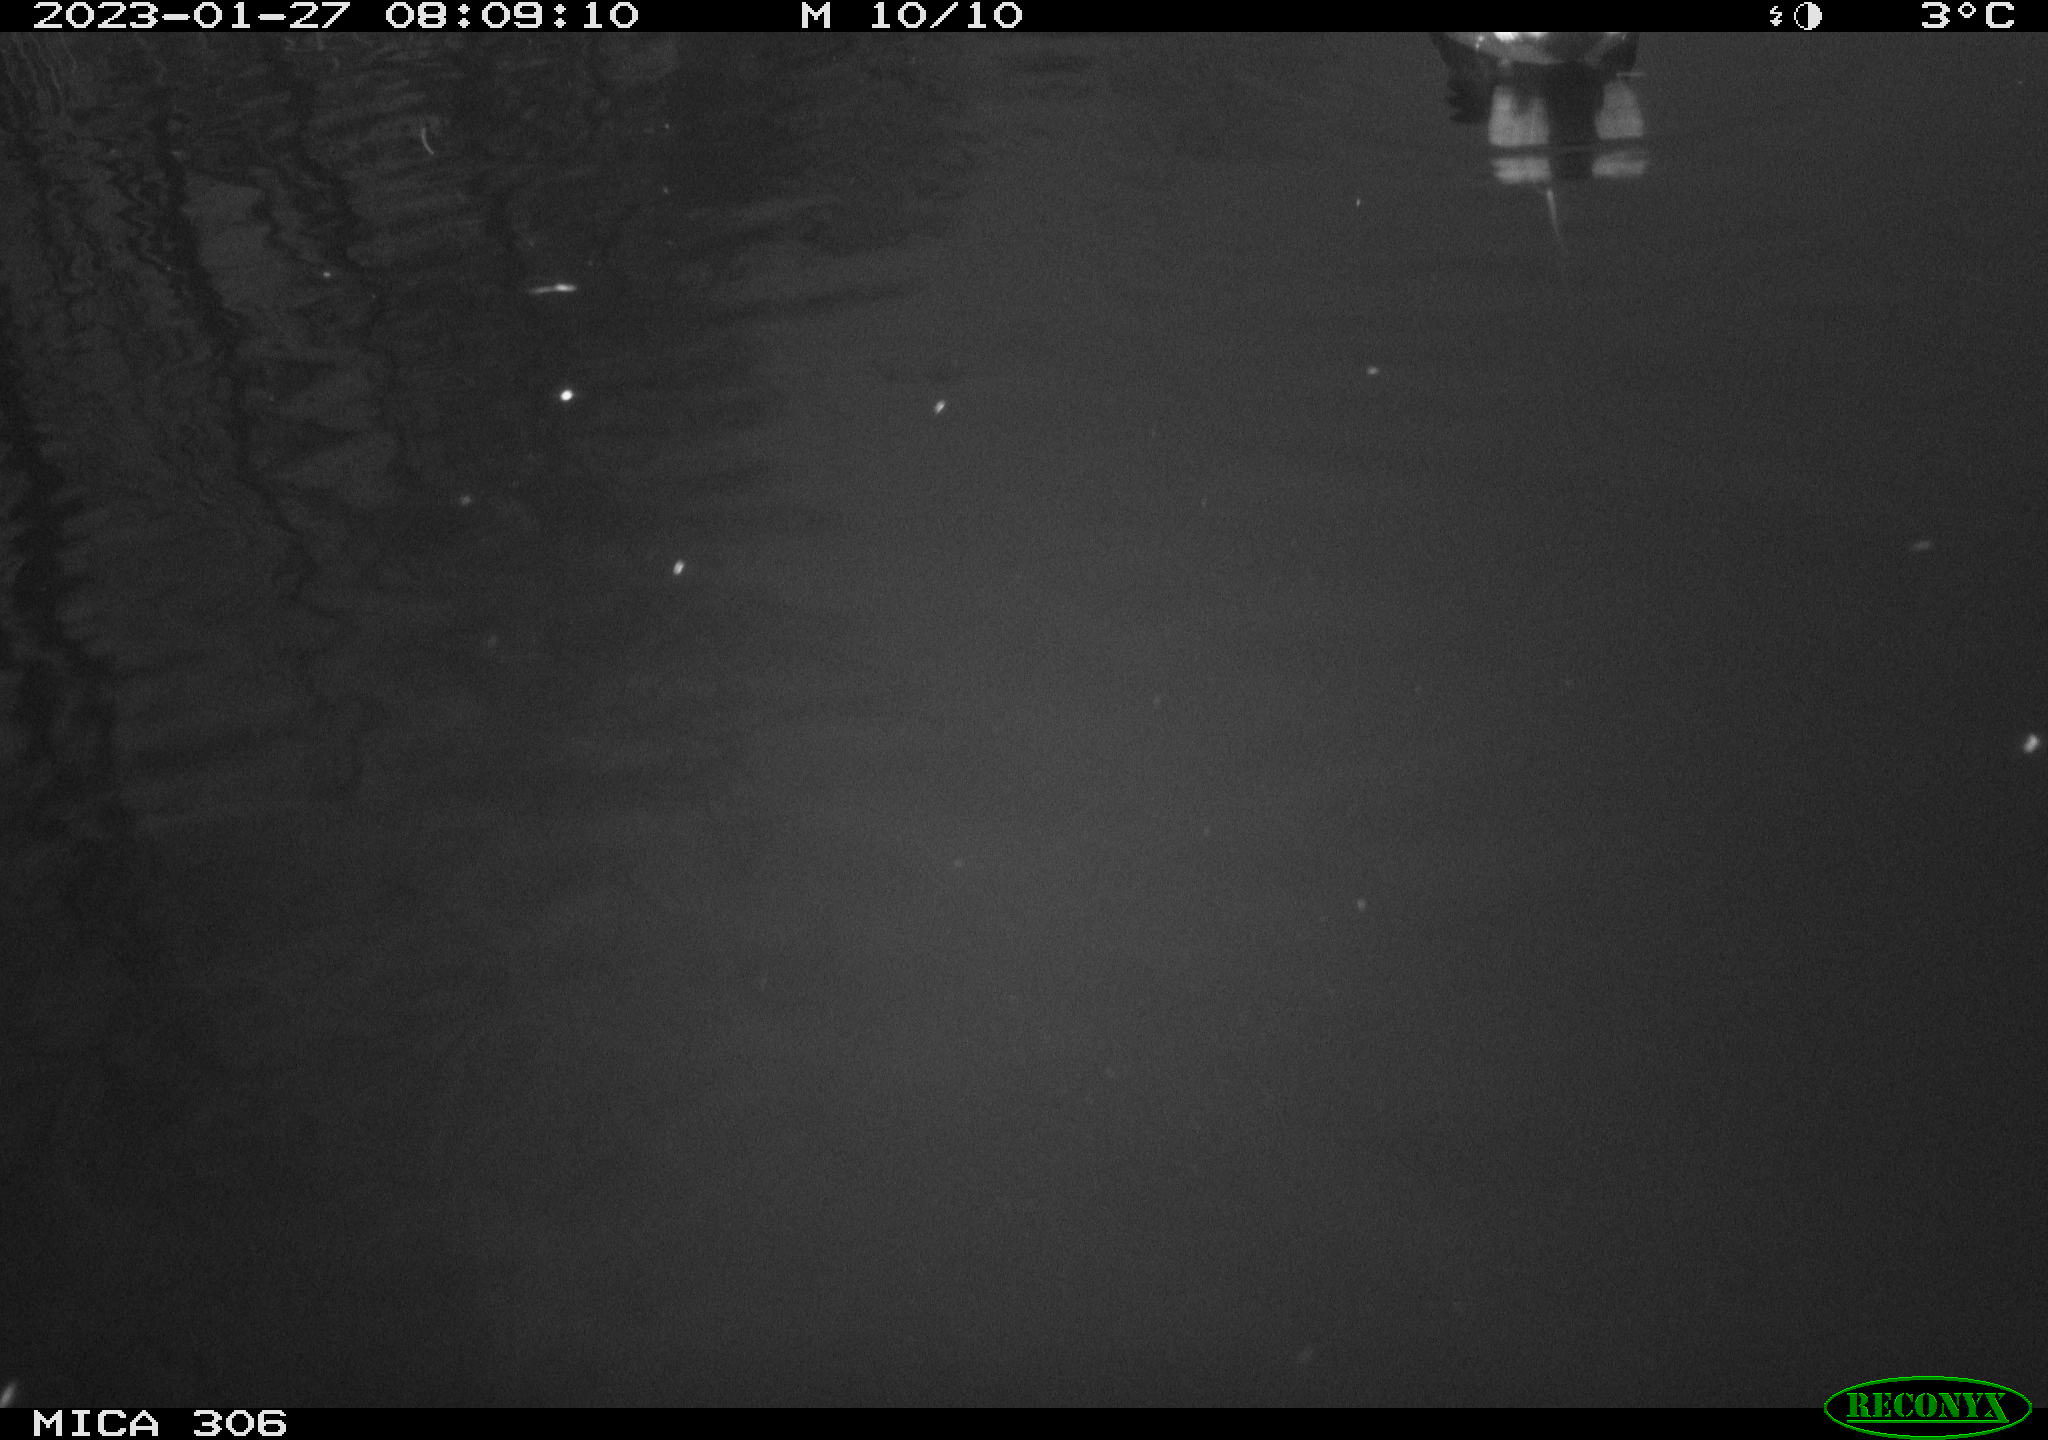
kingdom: Animalia
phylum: Chordata
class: Aves
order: Gruiformes
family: Rallidae
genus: Gallinula
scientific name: Gallinula chloropus
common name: Common moorhen
